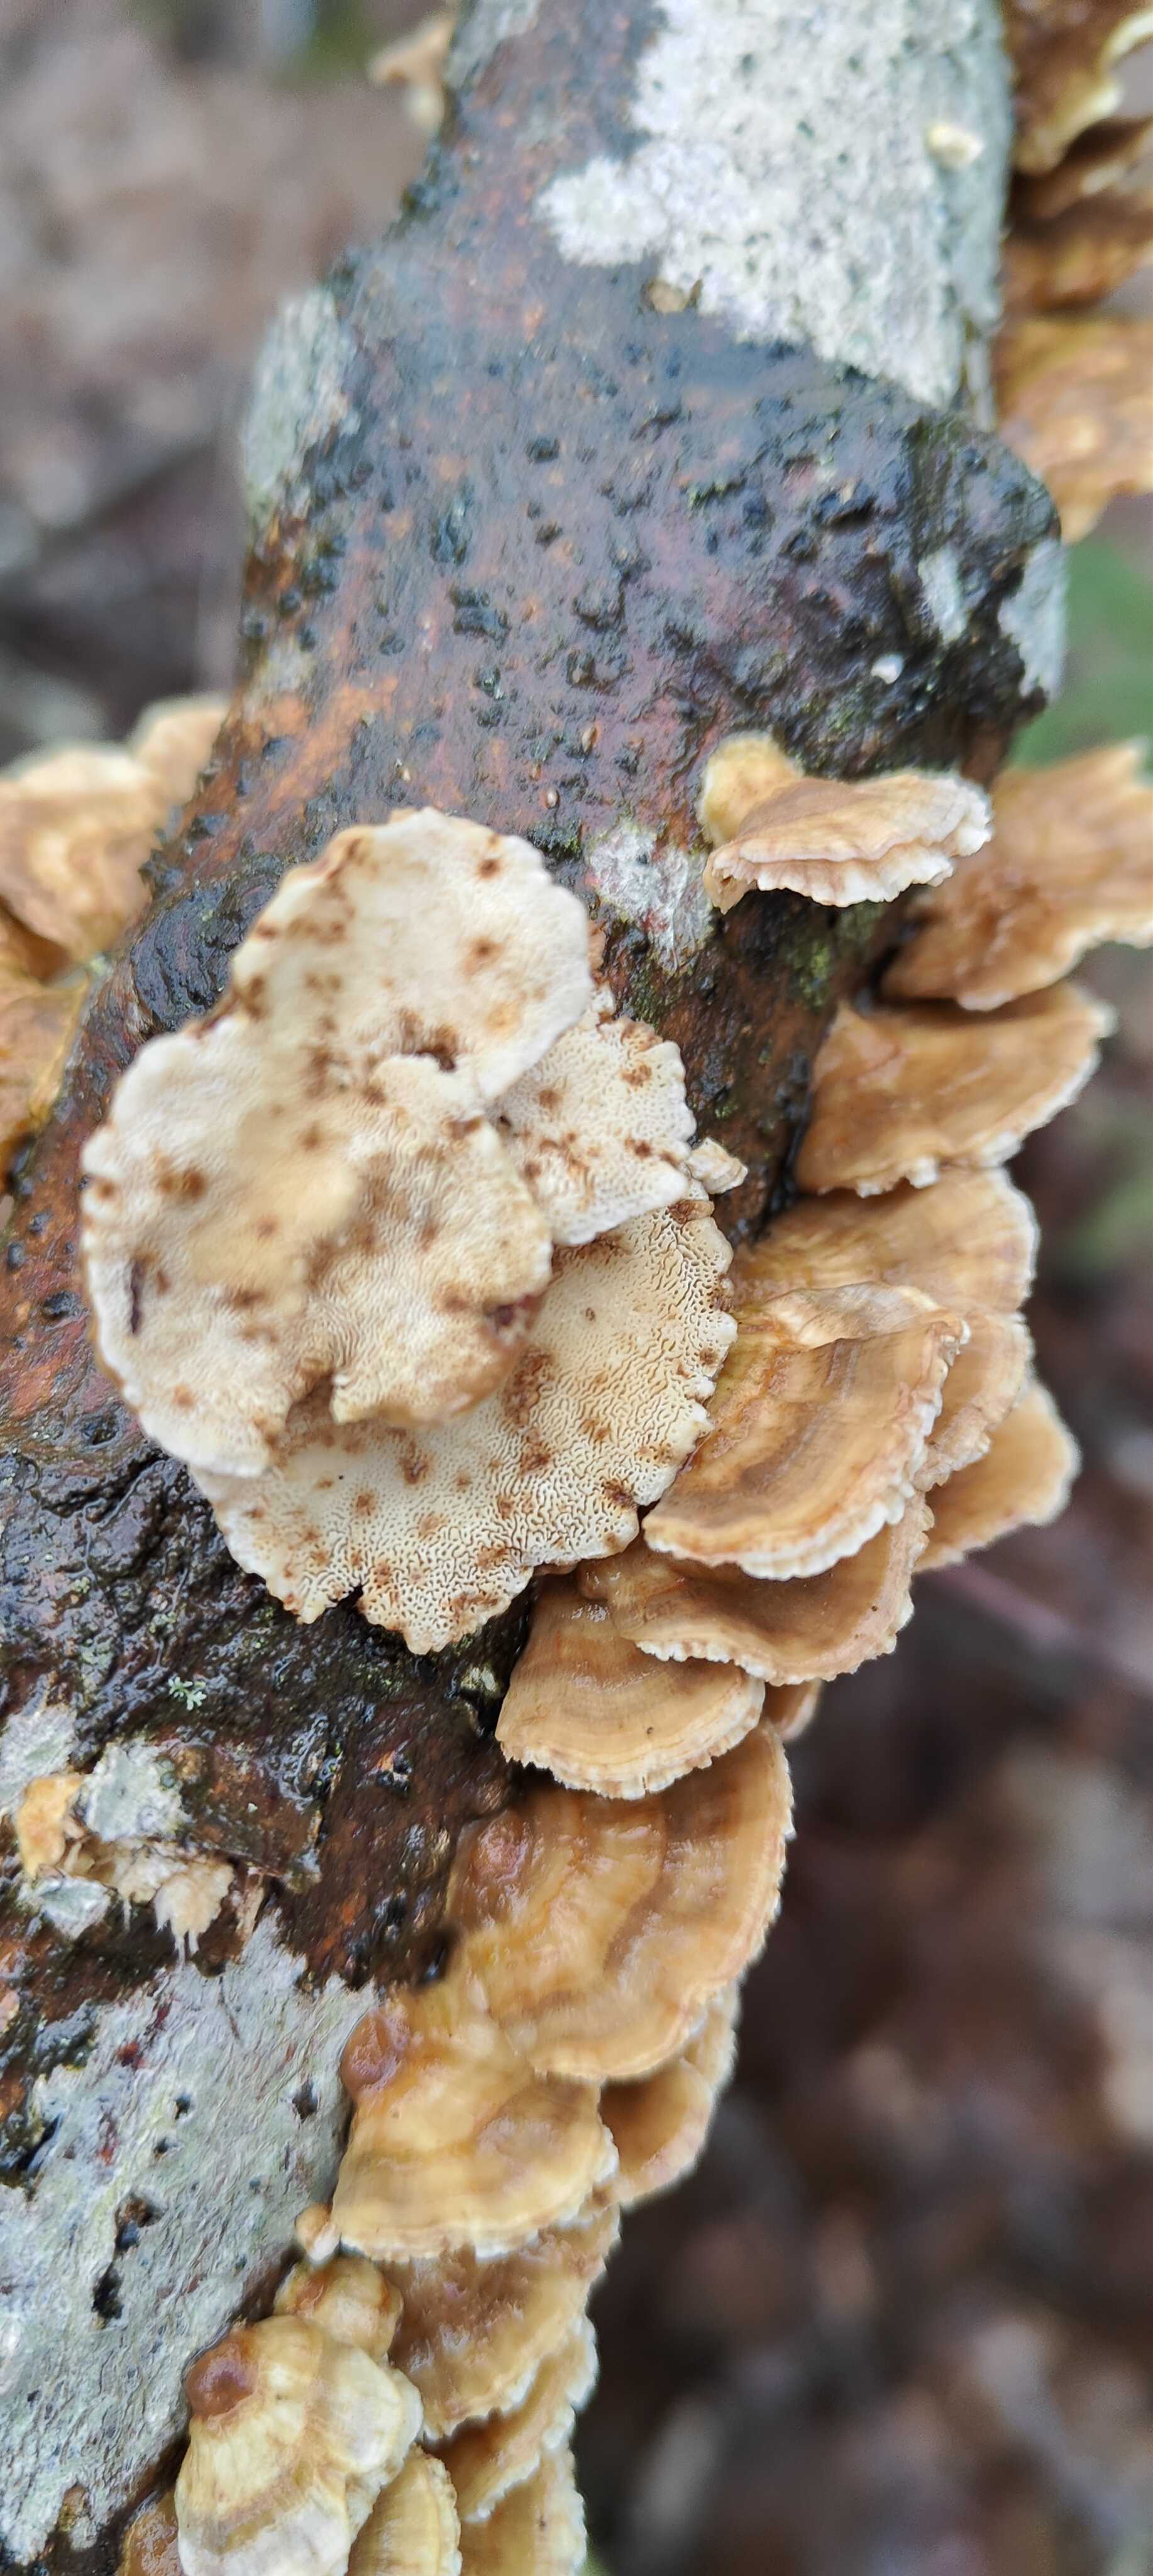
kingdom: Fungi
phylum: Basidiomycota
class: Agaricomycetes
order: Polyporales
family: Polyporaceae
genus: Trametes
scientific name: Trametes
